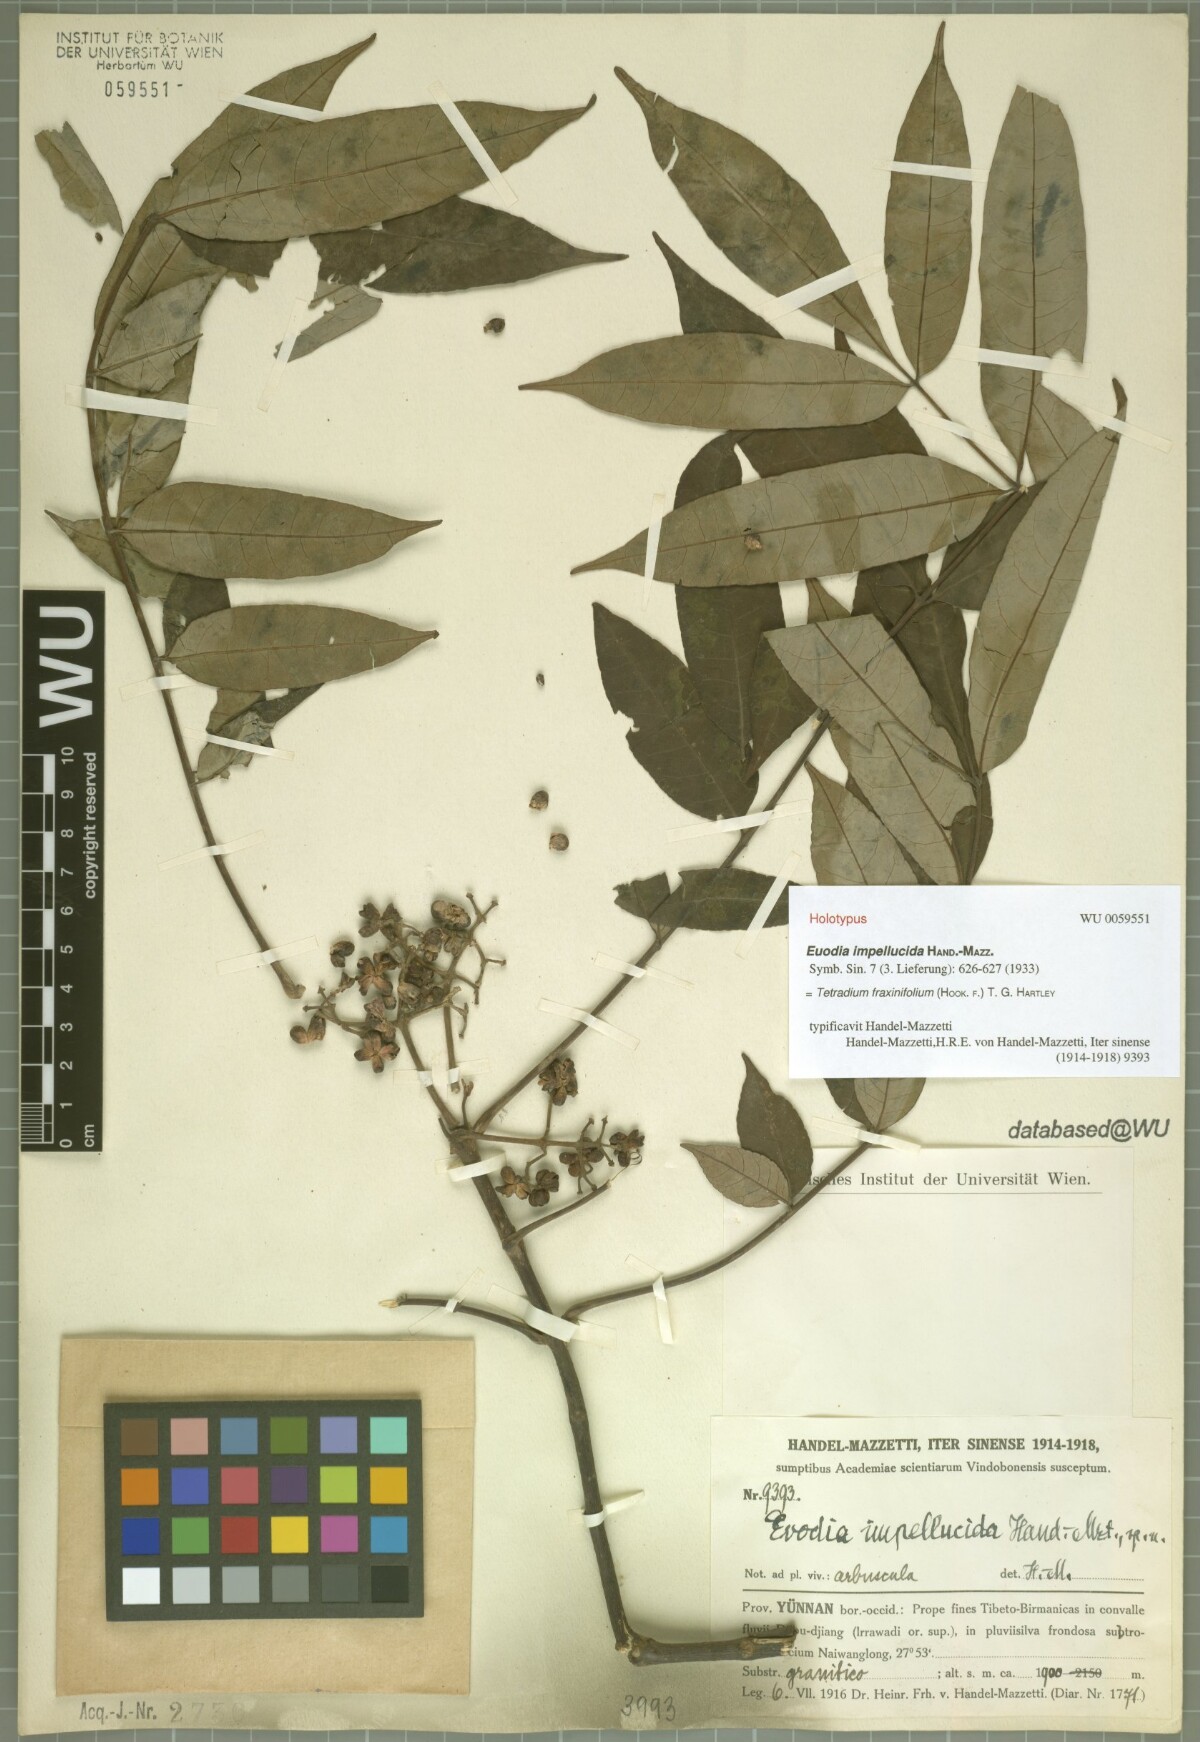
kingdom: Plantae
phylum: Tracheophyta
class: Magnoliopsida
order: Sapindales
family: Rutaceae
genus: Tetradium
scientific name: Tetradium fraxinifolium
